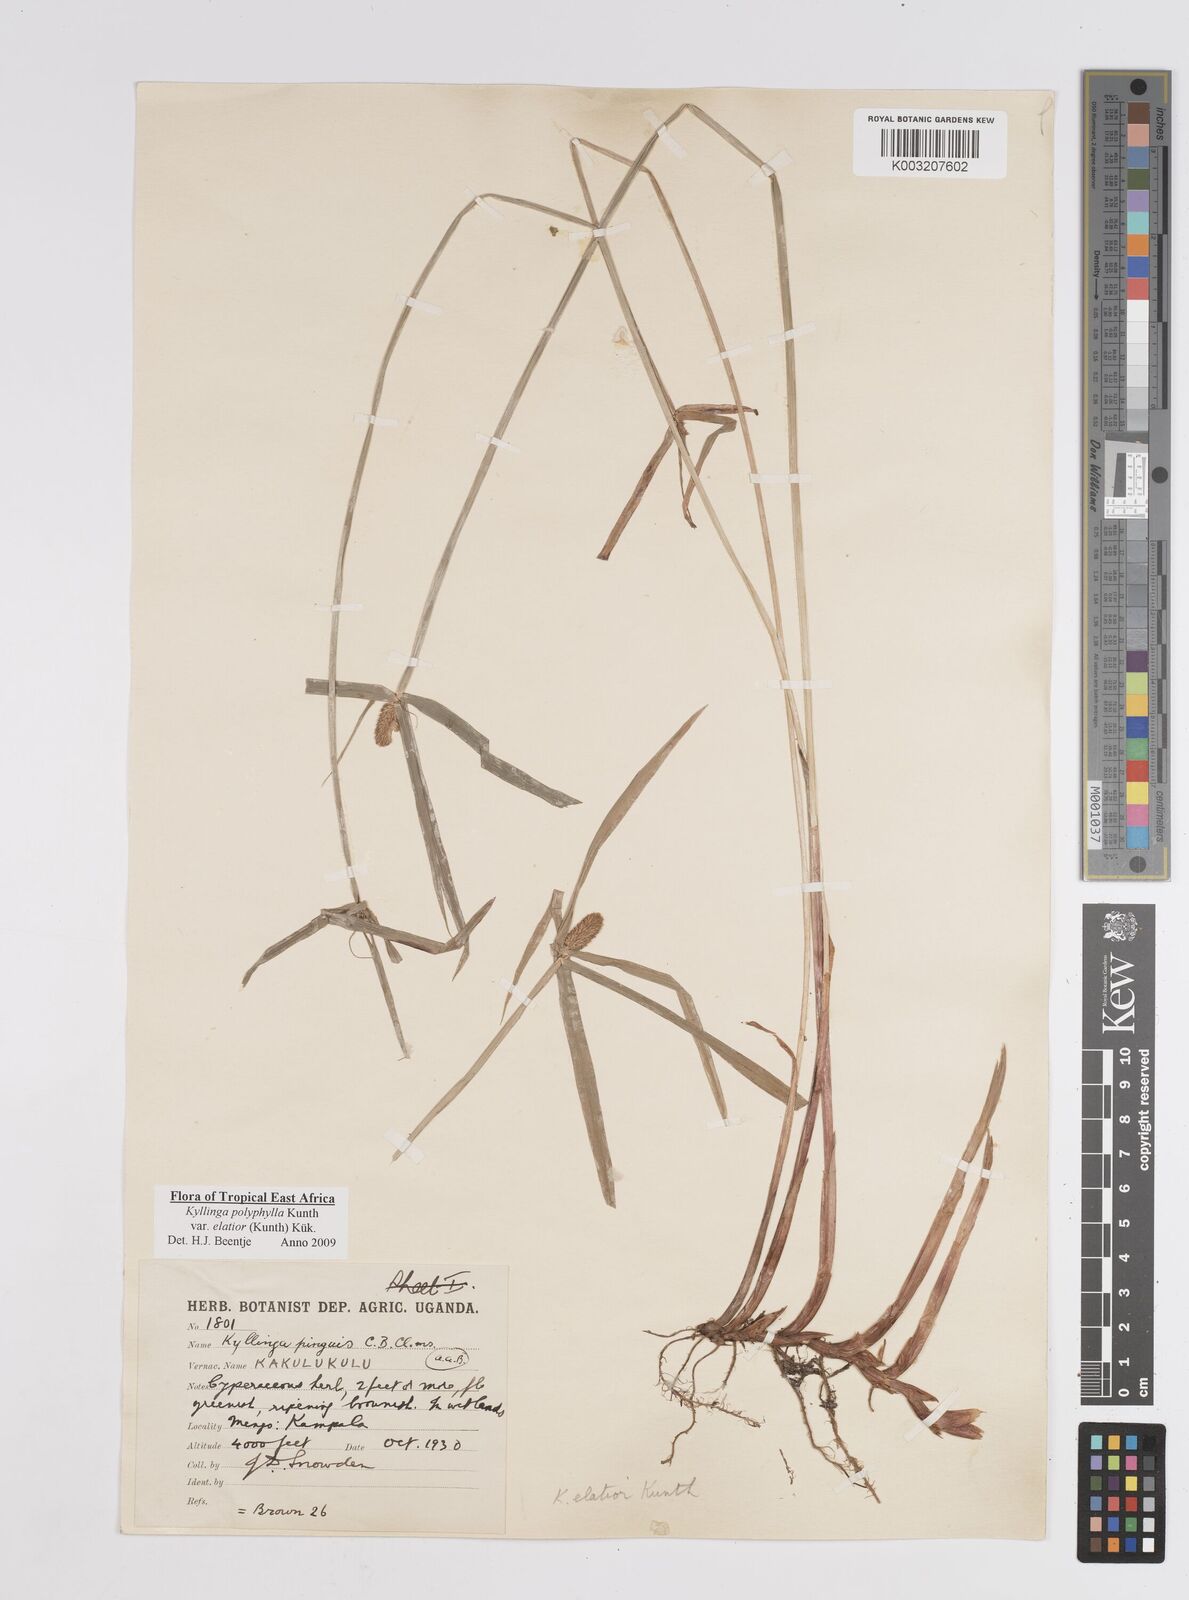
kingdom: Plantae
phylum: Tracheophyta
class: Liliopsida
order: Poales
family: Cyperaceae
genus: Cyperus
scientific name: Cyperus
